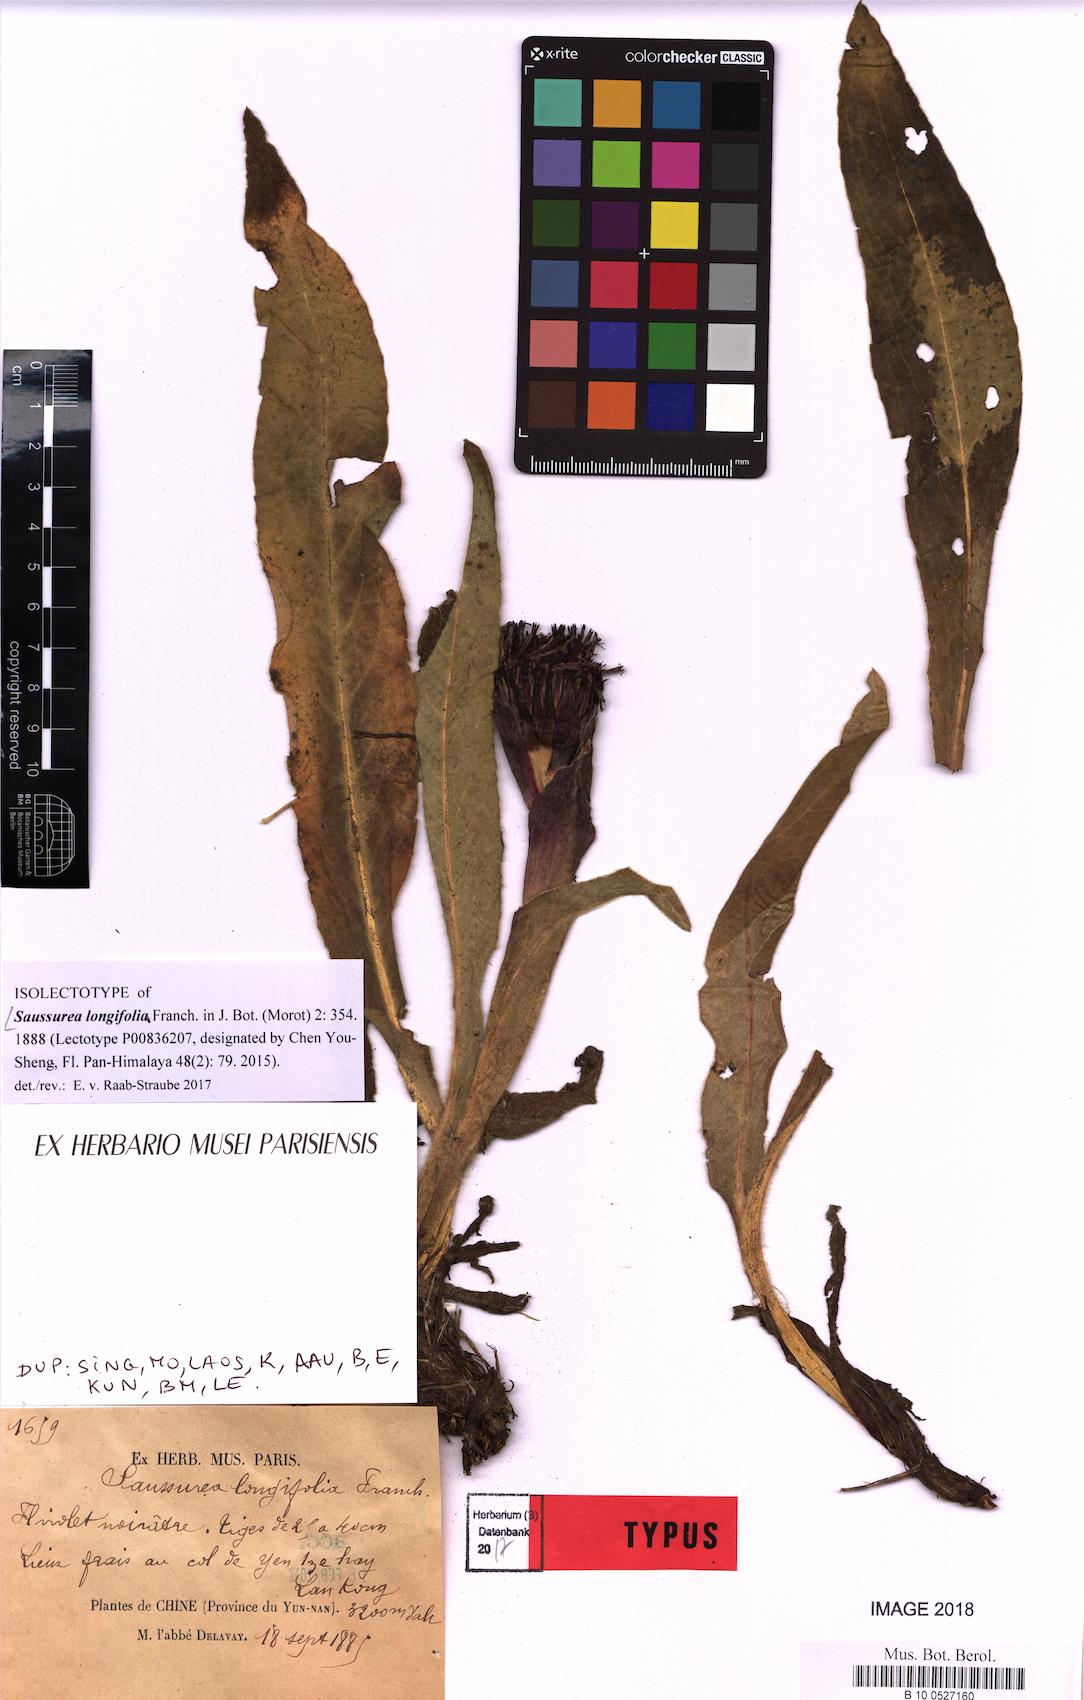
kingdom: Plantae
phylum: Tracheophyta
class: Magnoliopsida
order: Asterales
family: Asteraceae
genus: Saussurea
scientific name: Saussurea longifolia
